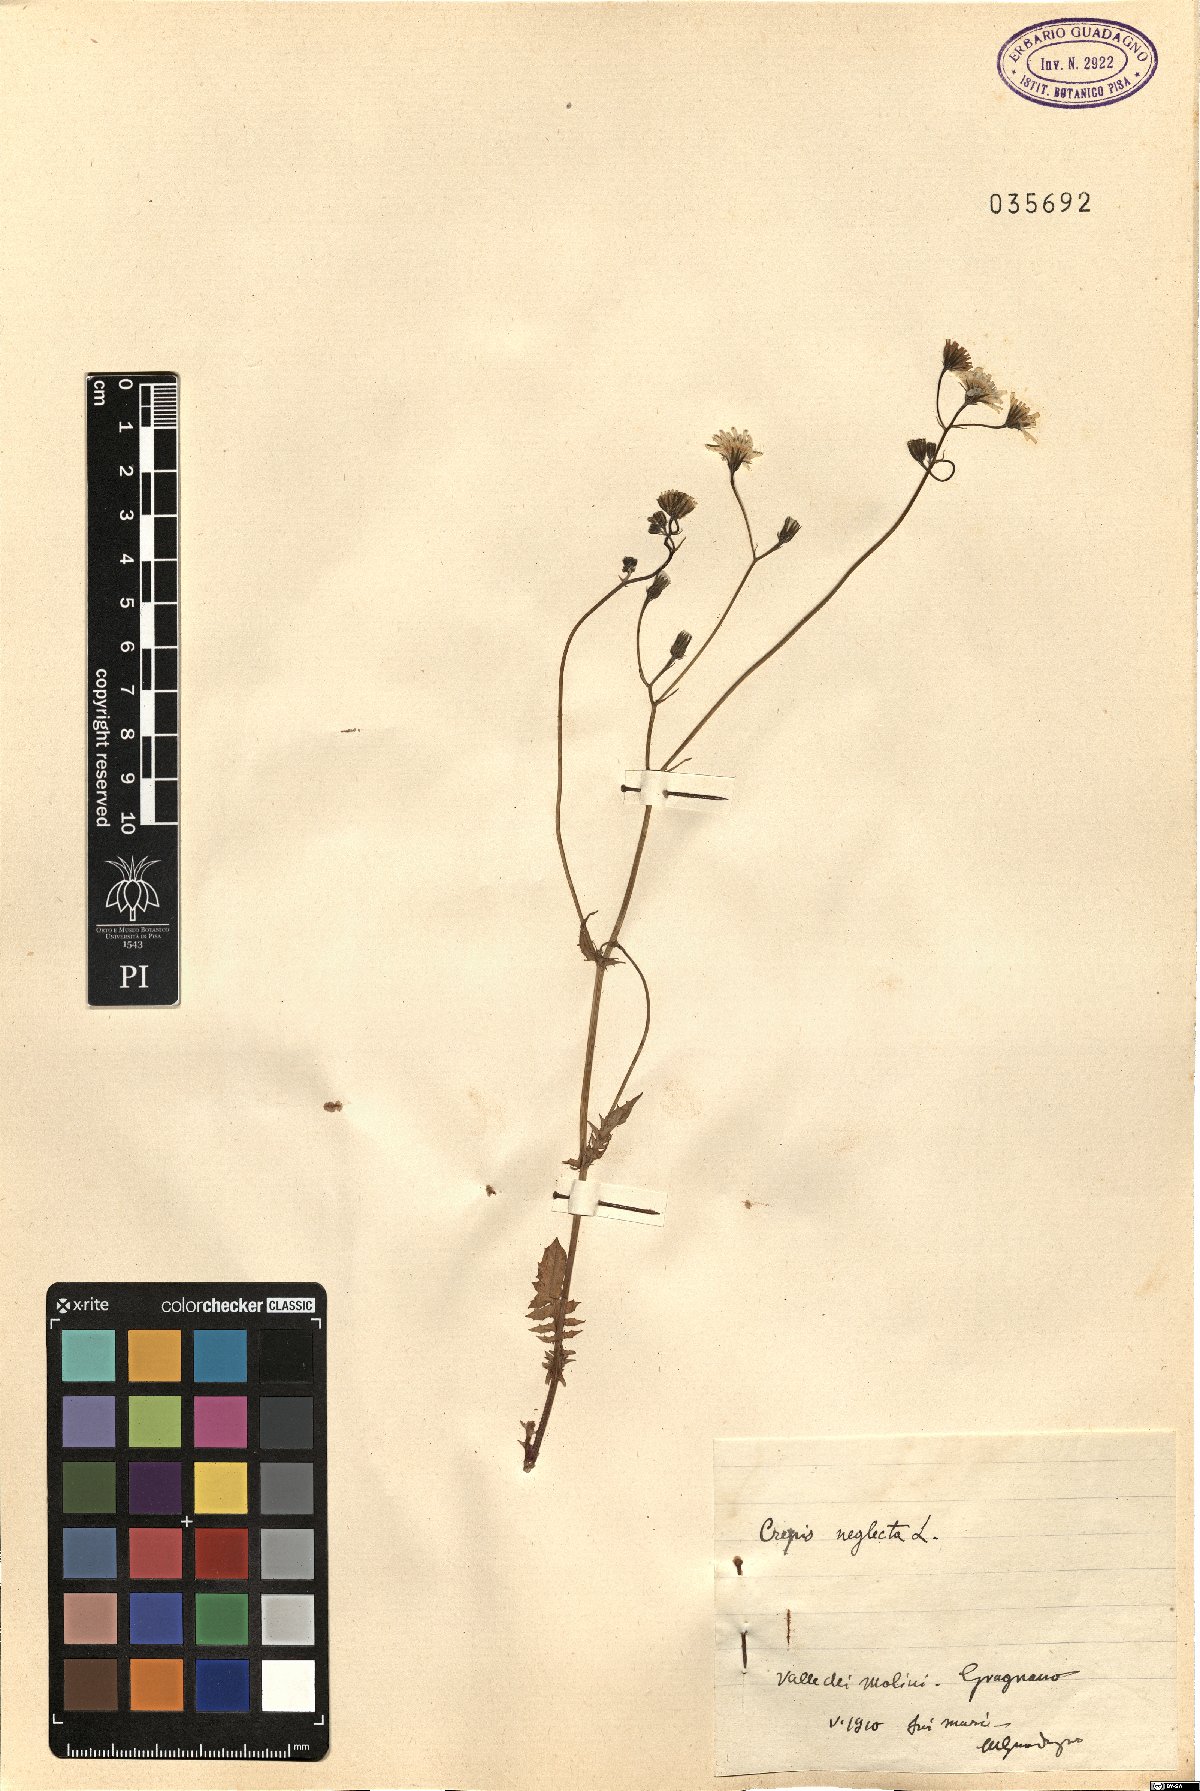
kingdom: Plantae
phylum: Tracheophyta
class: Magnoliopsida
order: Asterales
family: Asteraceae
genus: Crepis
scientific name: Crepis neglecta
